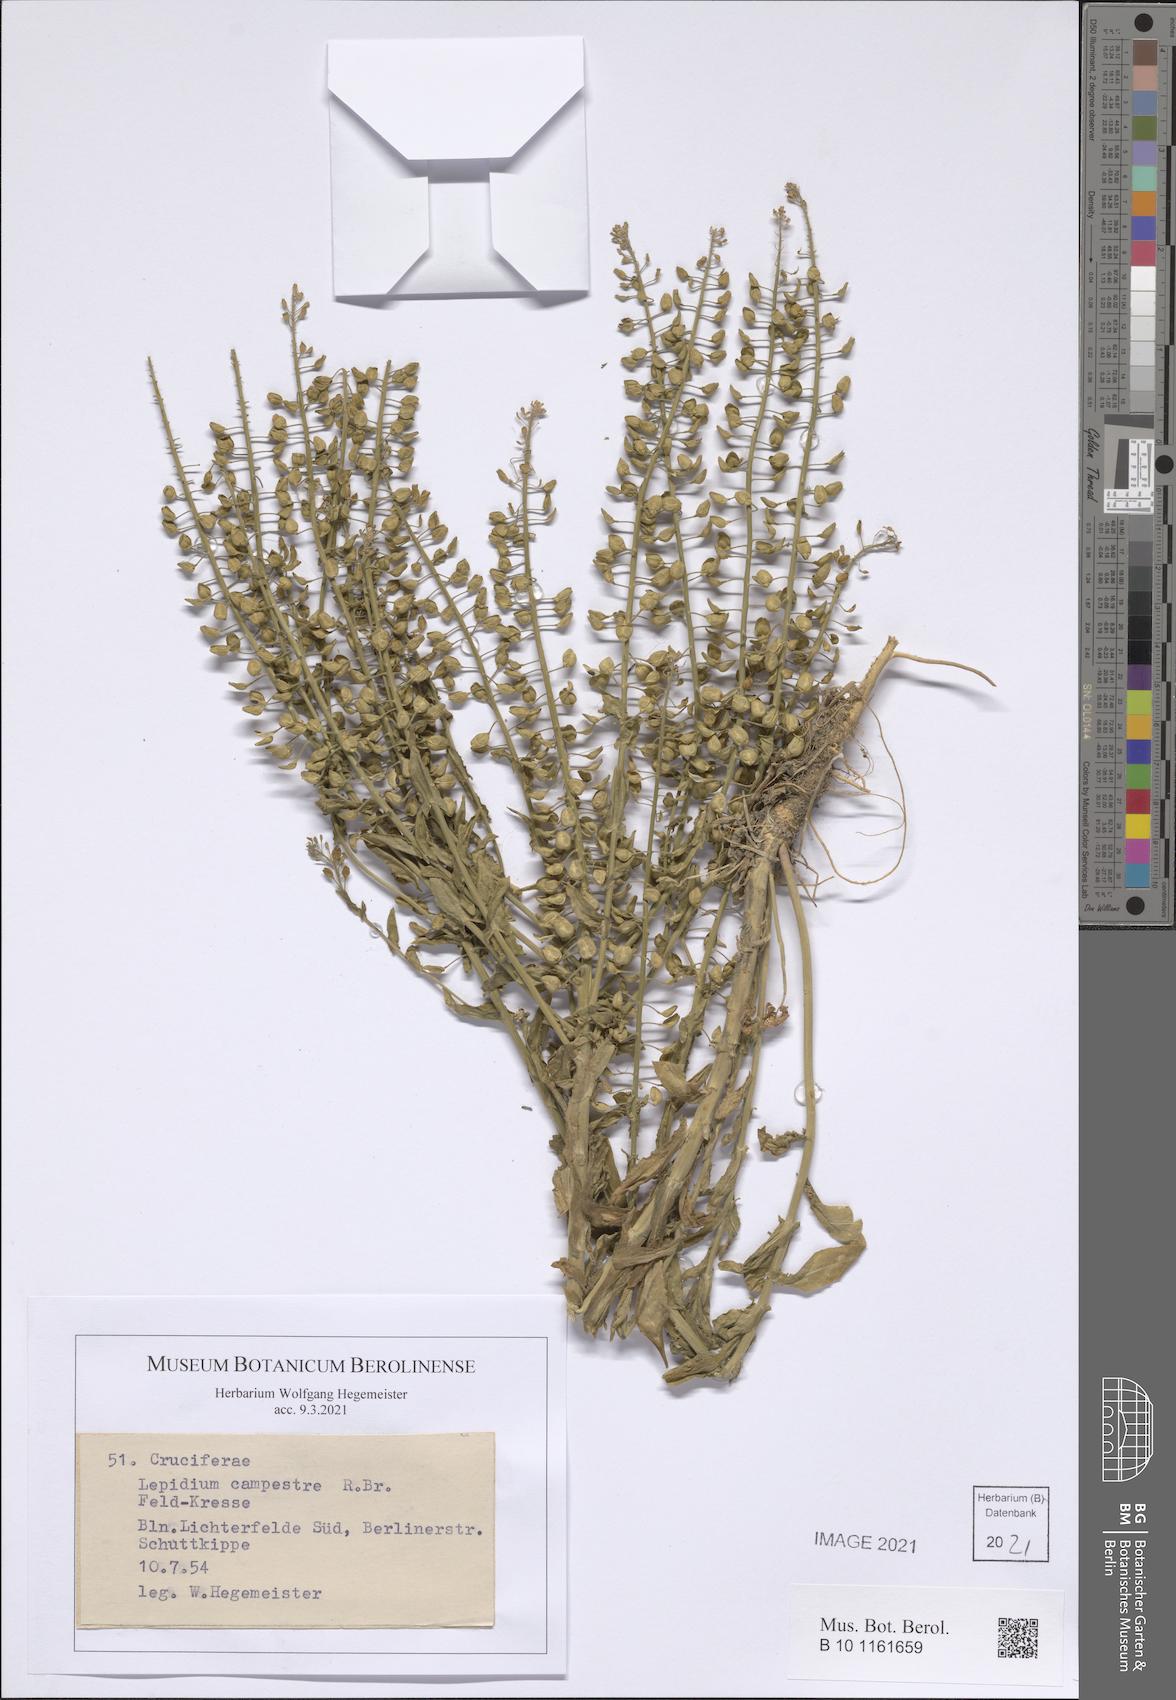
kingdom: Plantae
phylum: Tracheophyta
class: Magnoliopsida
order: Brassicales
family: Brassicaceae
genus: Lepidium
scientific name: Lepidium campestre
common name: Field pepperwort
